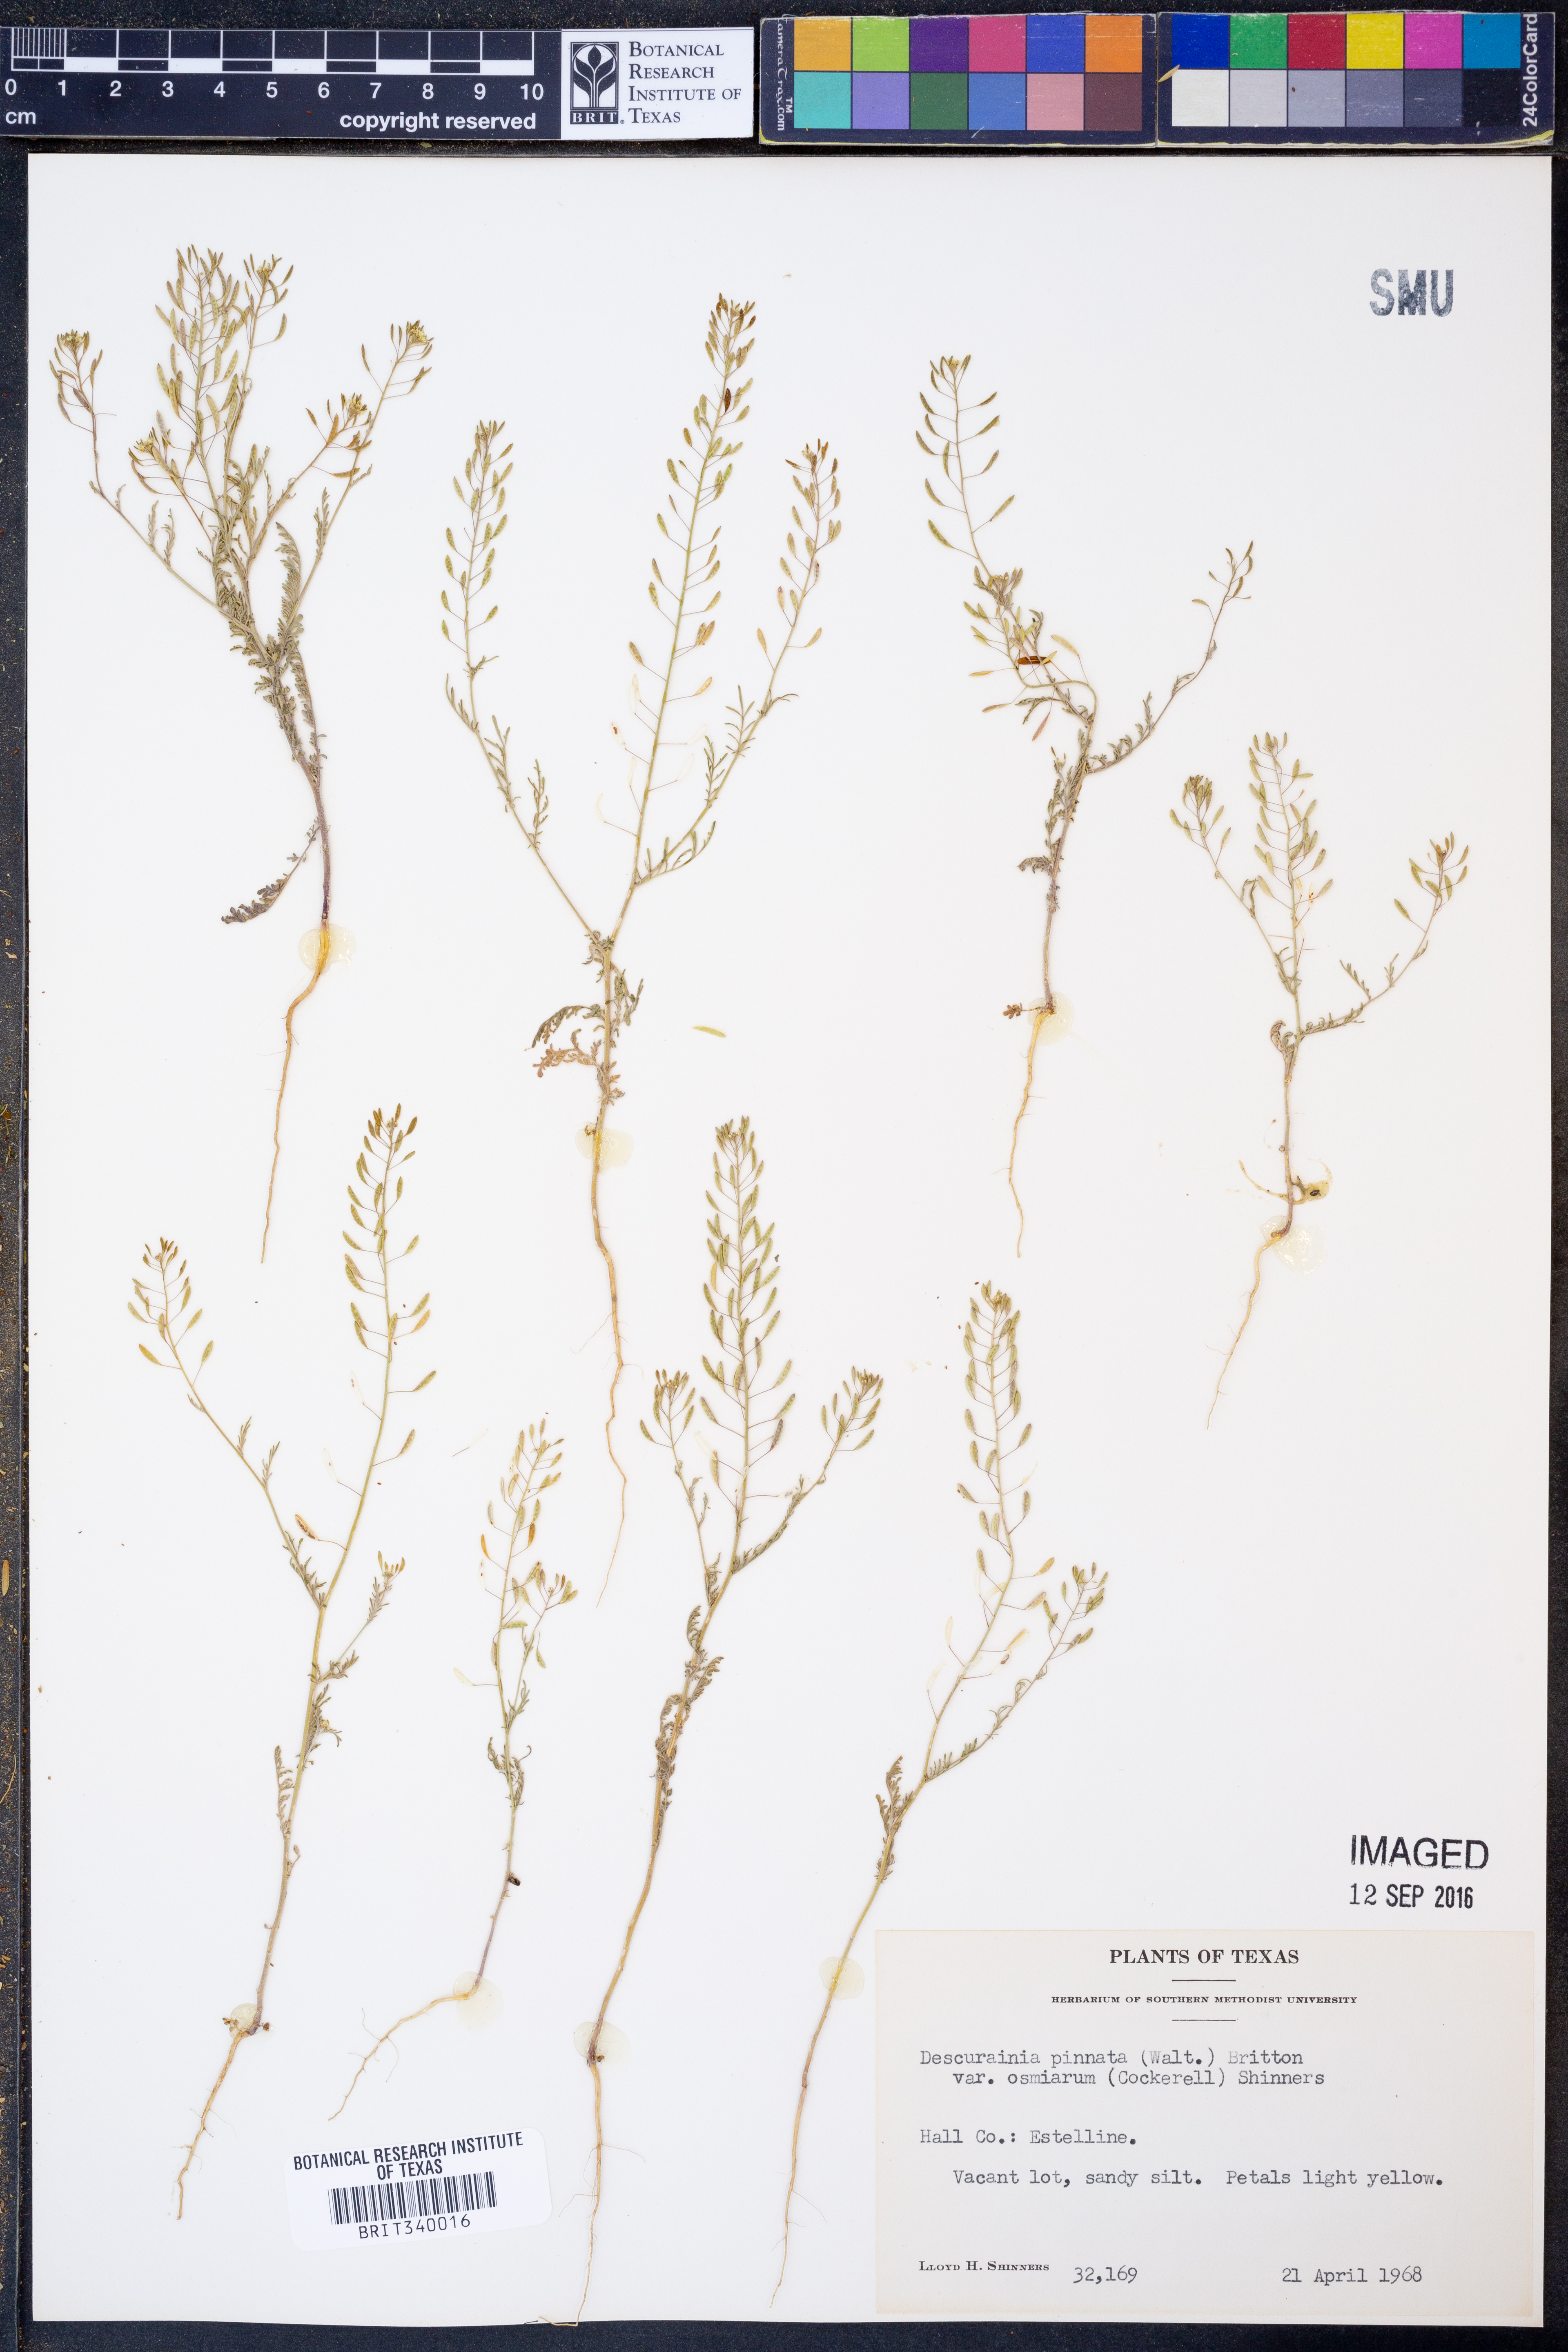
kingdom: Plantae
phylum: Tracheophyta
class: Magnoliopsida
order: Brassicales
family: Brassicaceae
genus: Descurainia
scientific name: Descurainia pinnata
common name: Western tansy mustard
